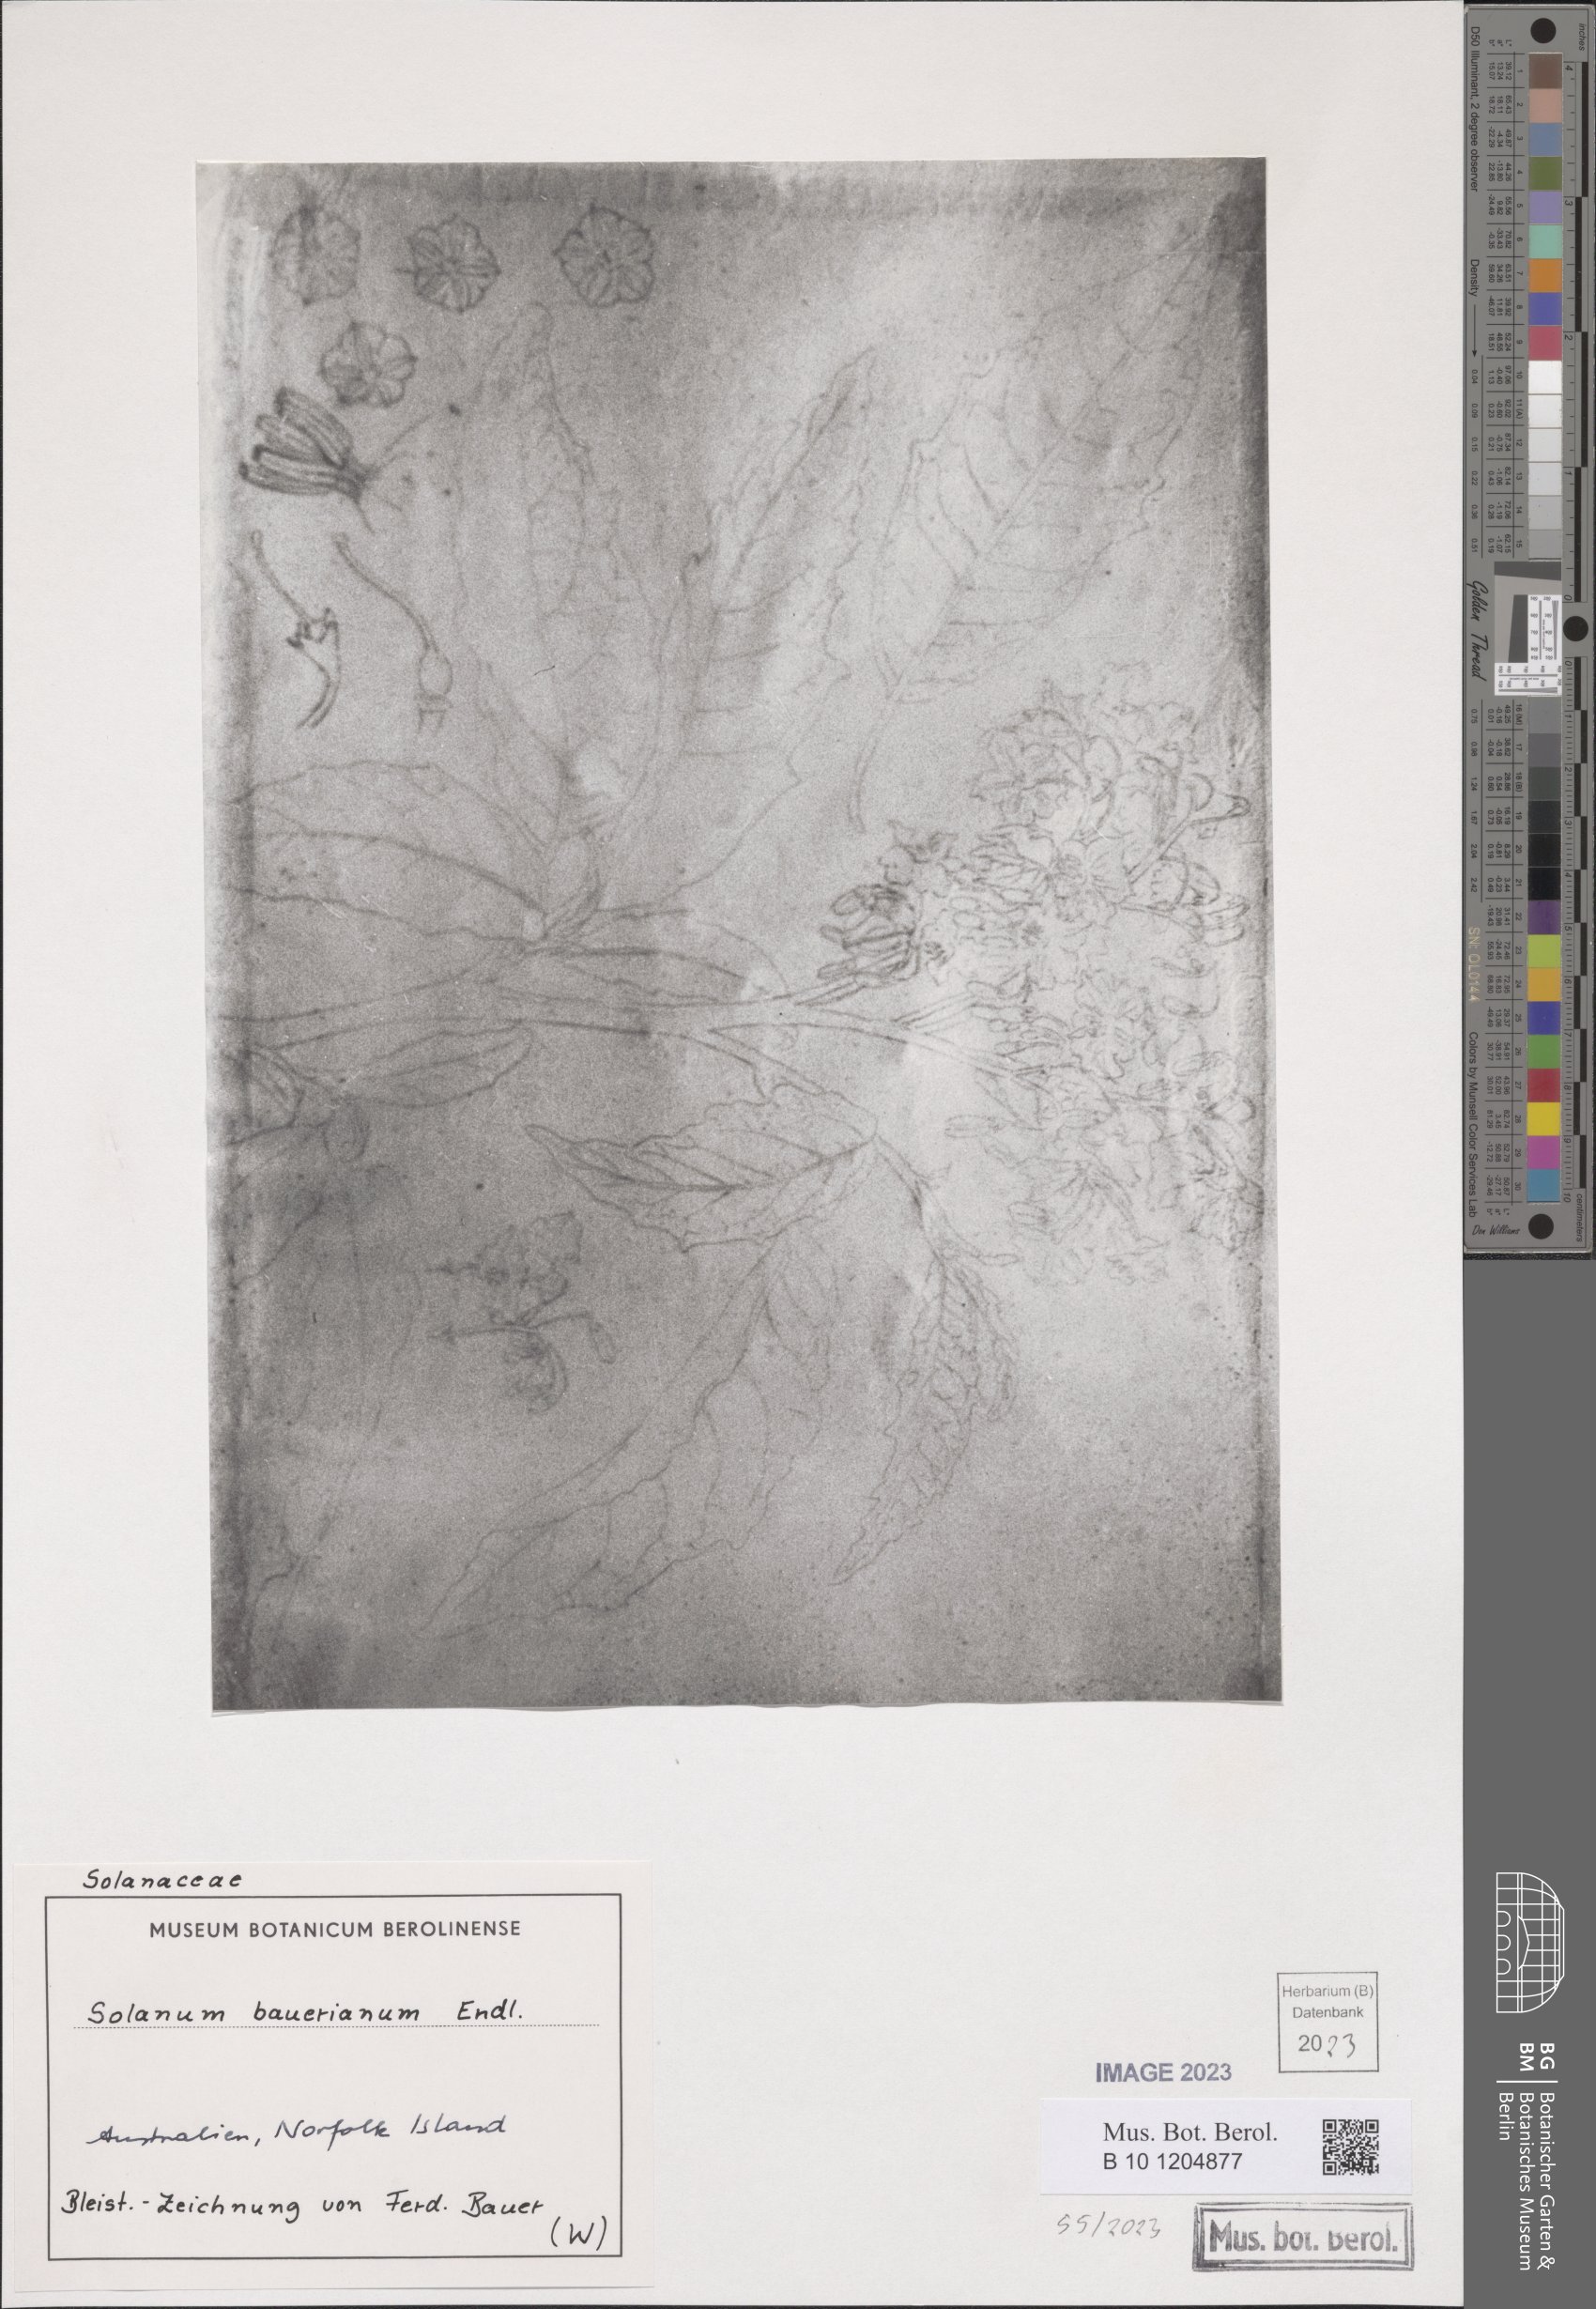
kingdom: Plantae
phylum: Tracheophyta
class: Magnoliopsida
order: Solanales
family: Solanaceae
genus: Solanum
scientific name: Solanum bauerianum
